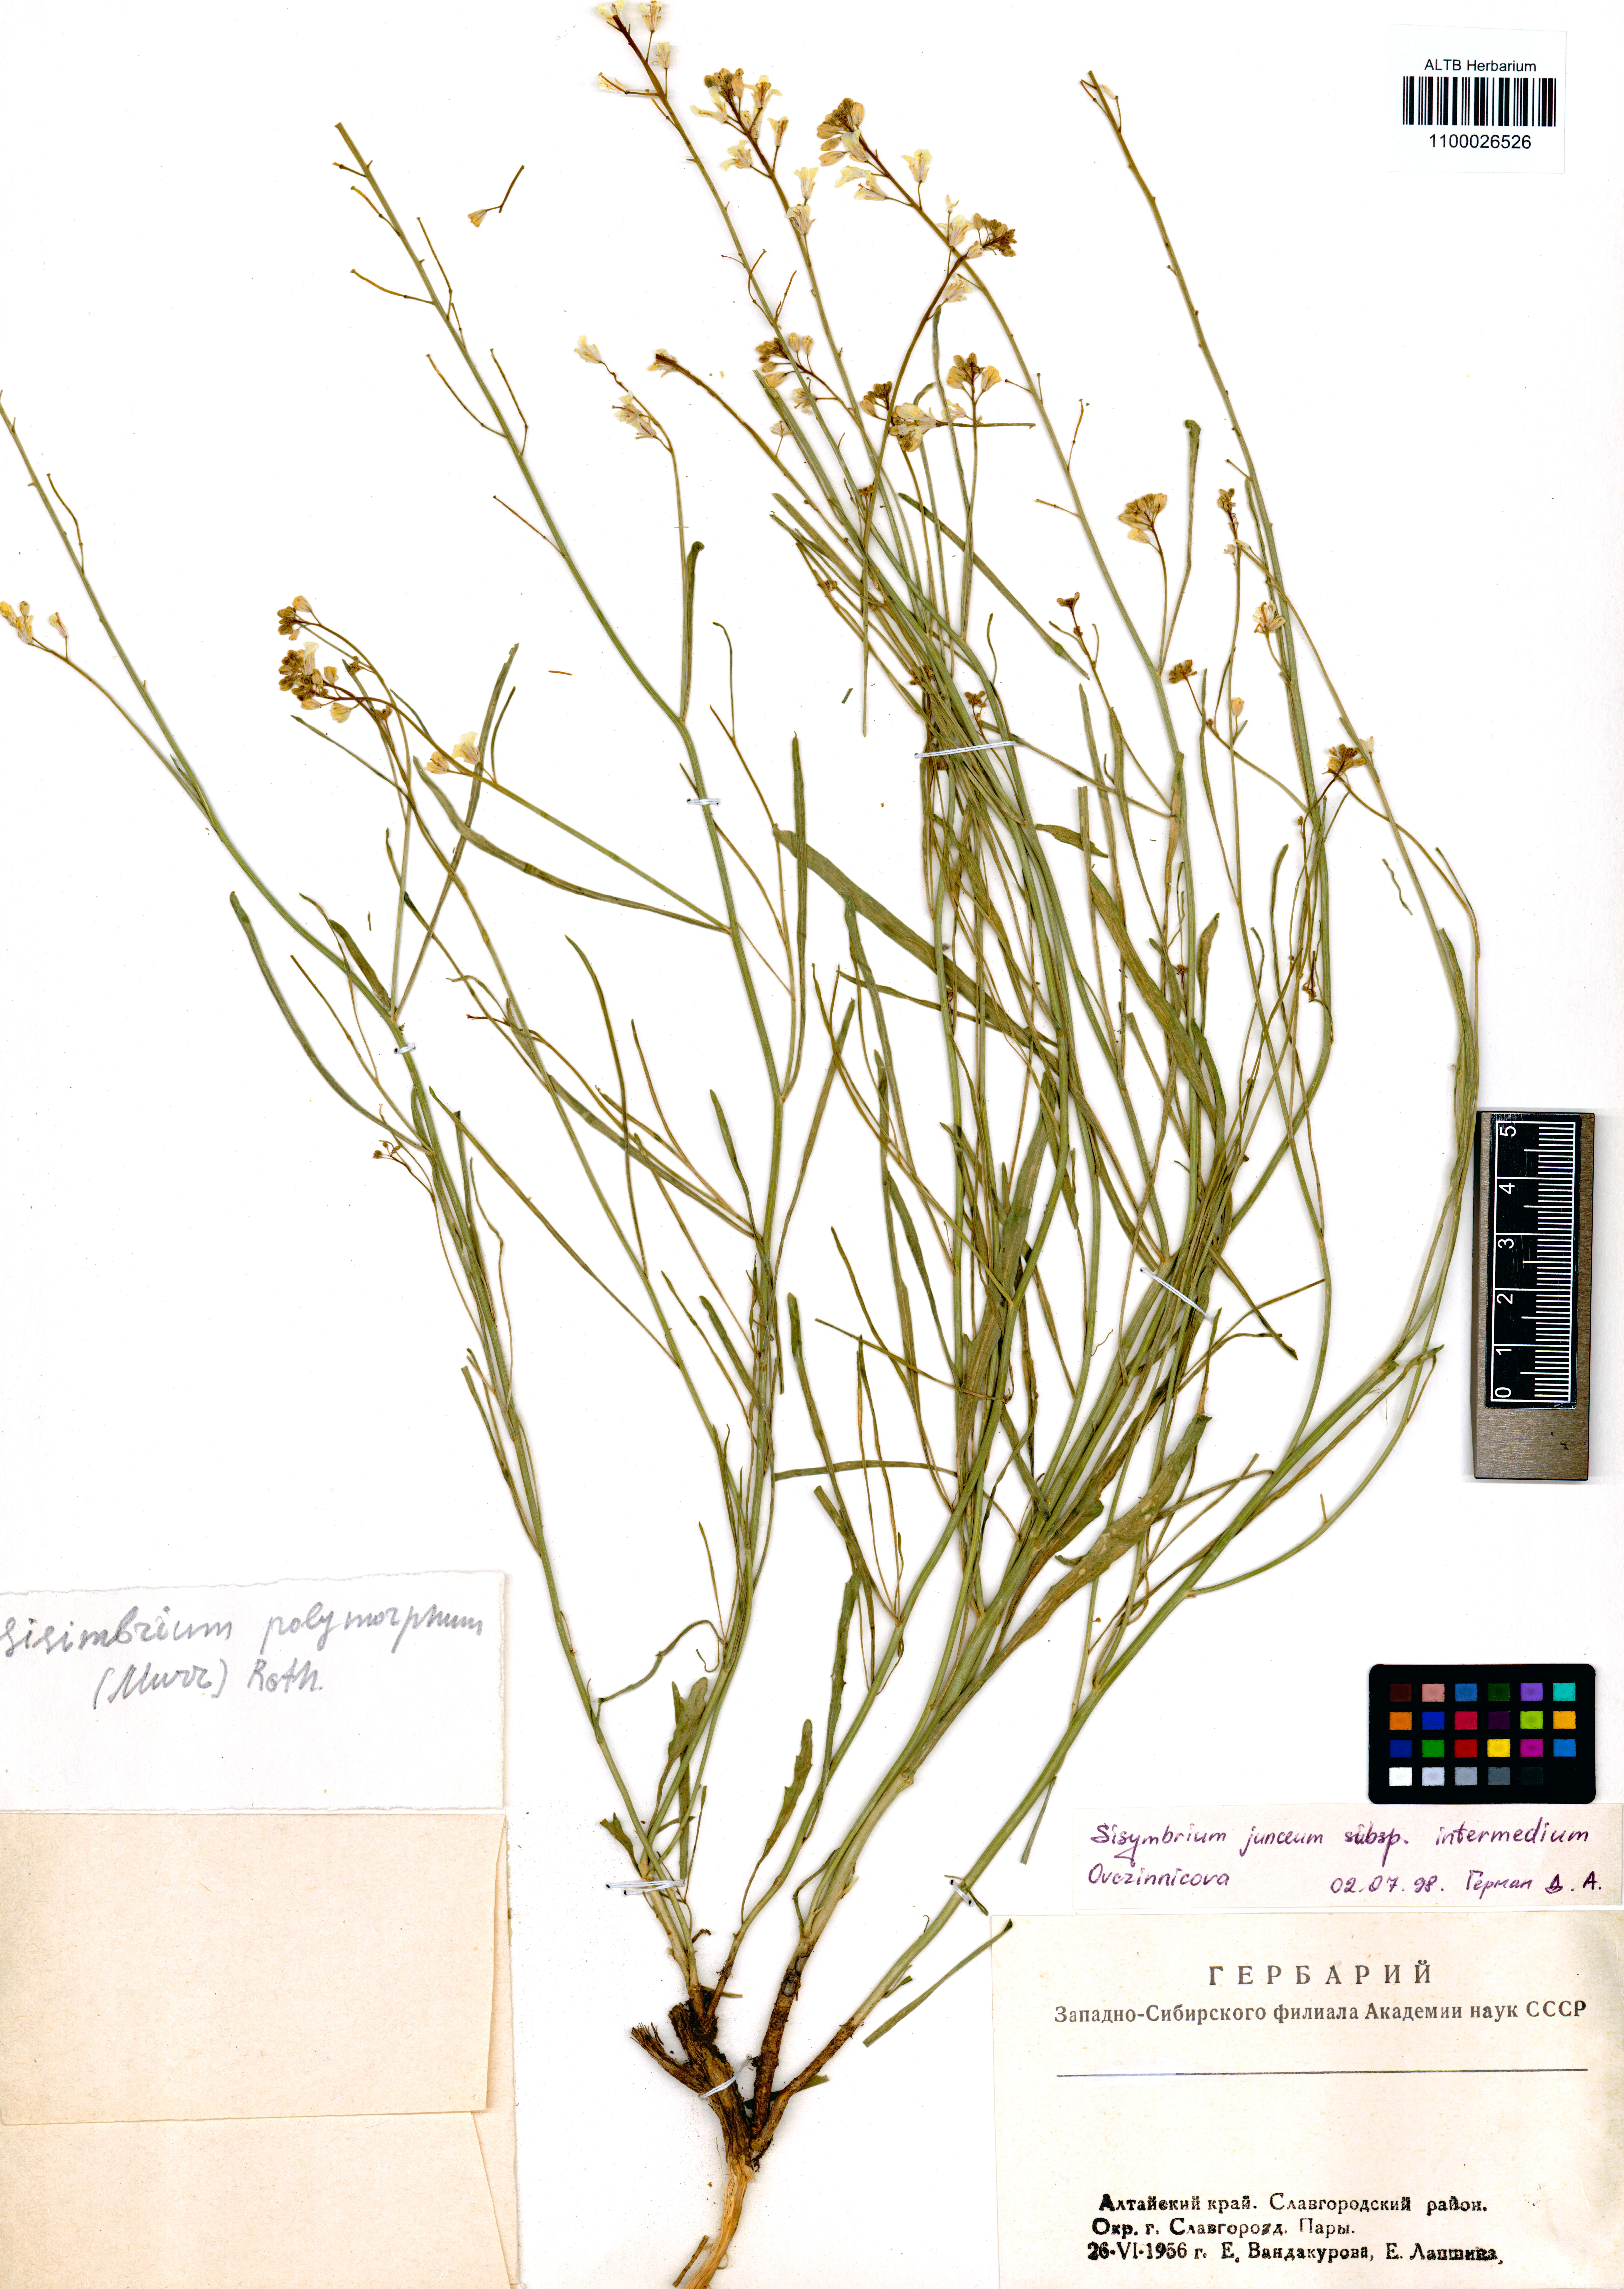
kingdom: Plantae
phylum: Tracheophyta
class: Magnoliopsida
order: Brassicales
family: Brassicaceae
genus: Sisymbrium
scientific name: Sisymbrium polymorphum
